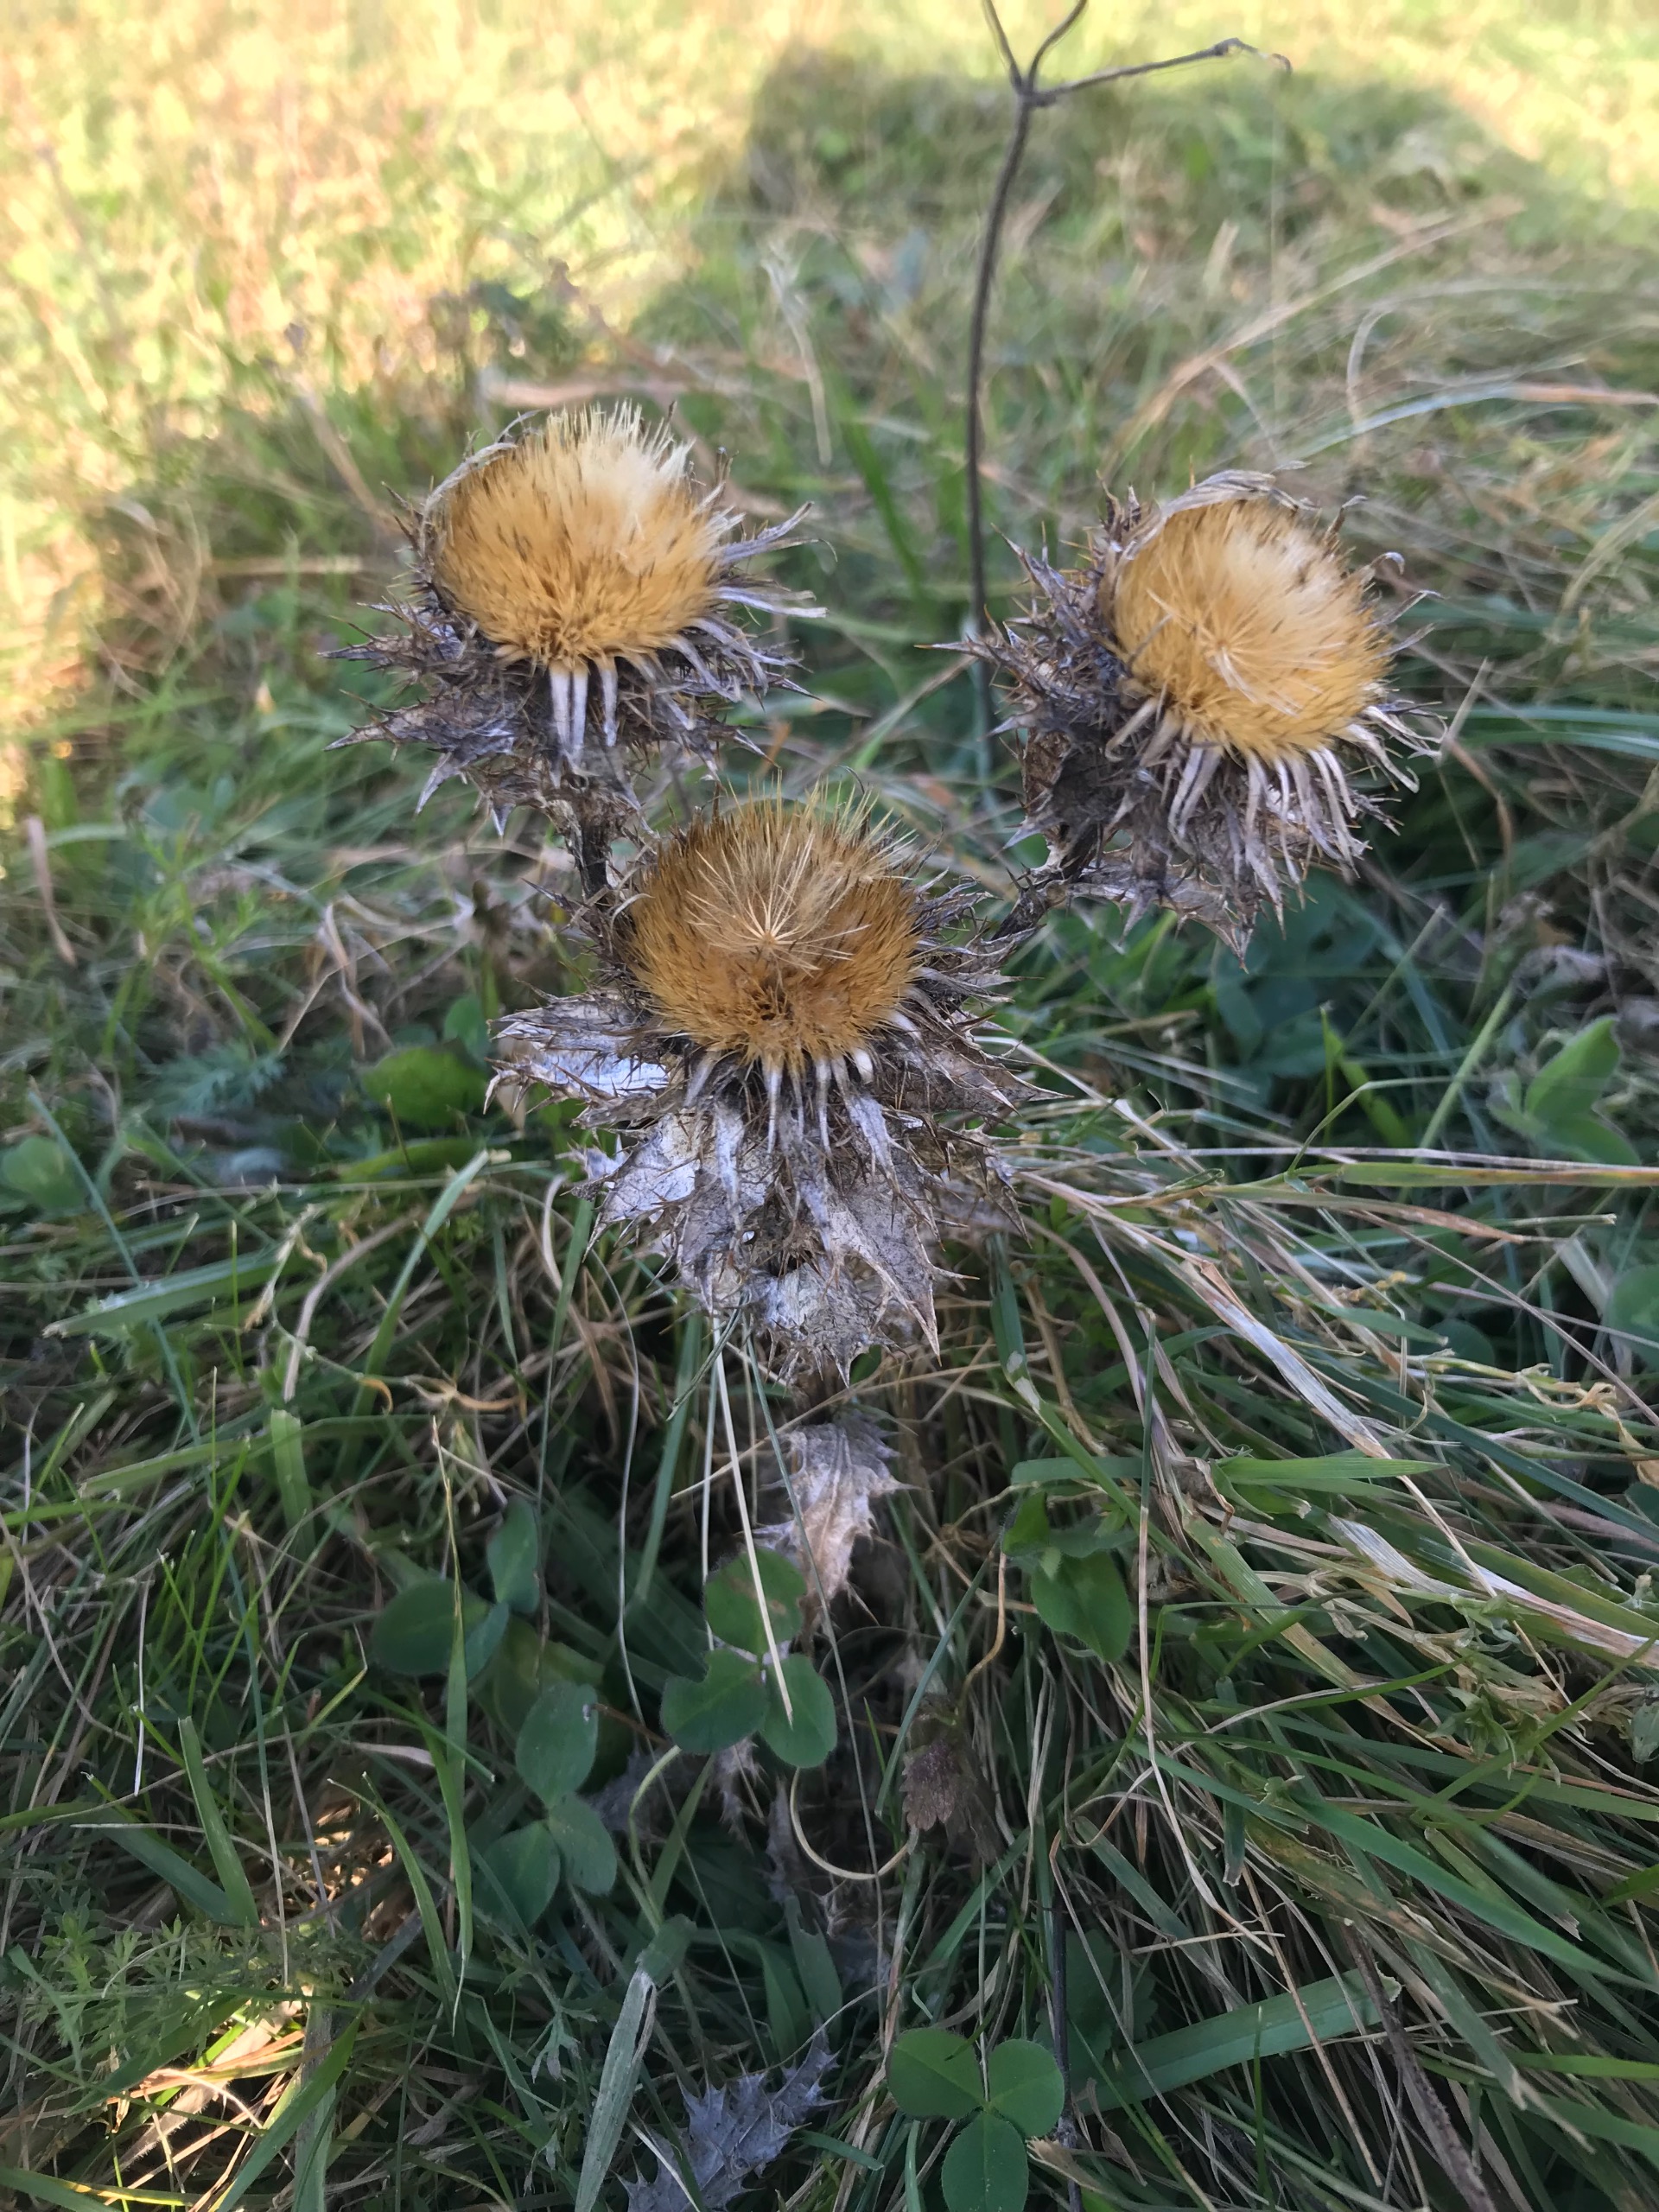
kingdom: Plantae
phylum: Tracheophyta
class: Magnoliopsida
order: Asterales
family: Asteraceae
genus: Carlina
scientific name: Carlina vulgaris
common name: Bakketidsel
